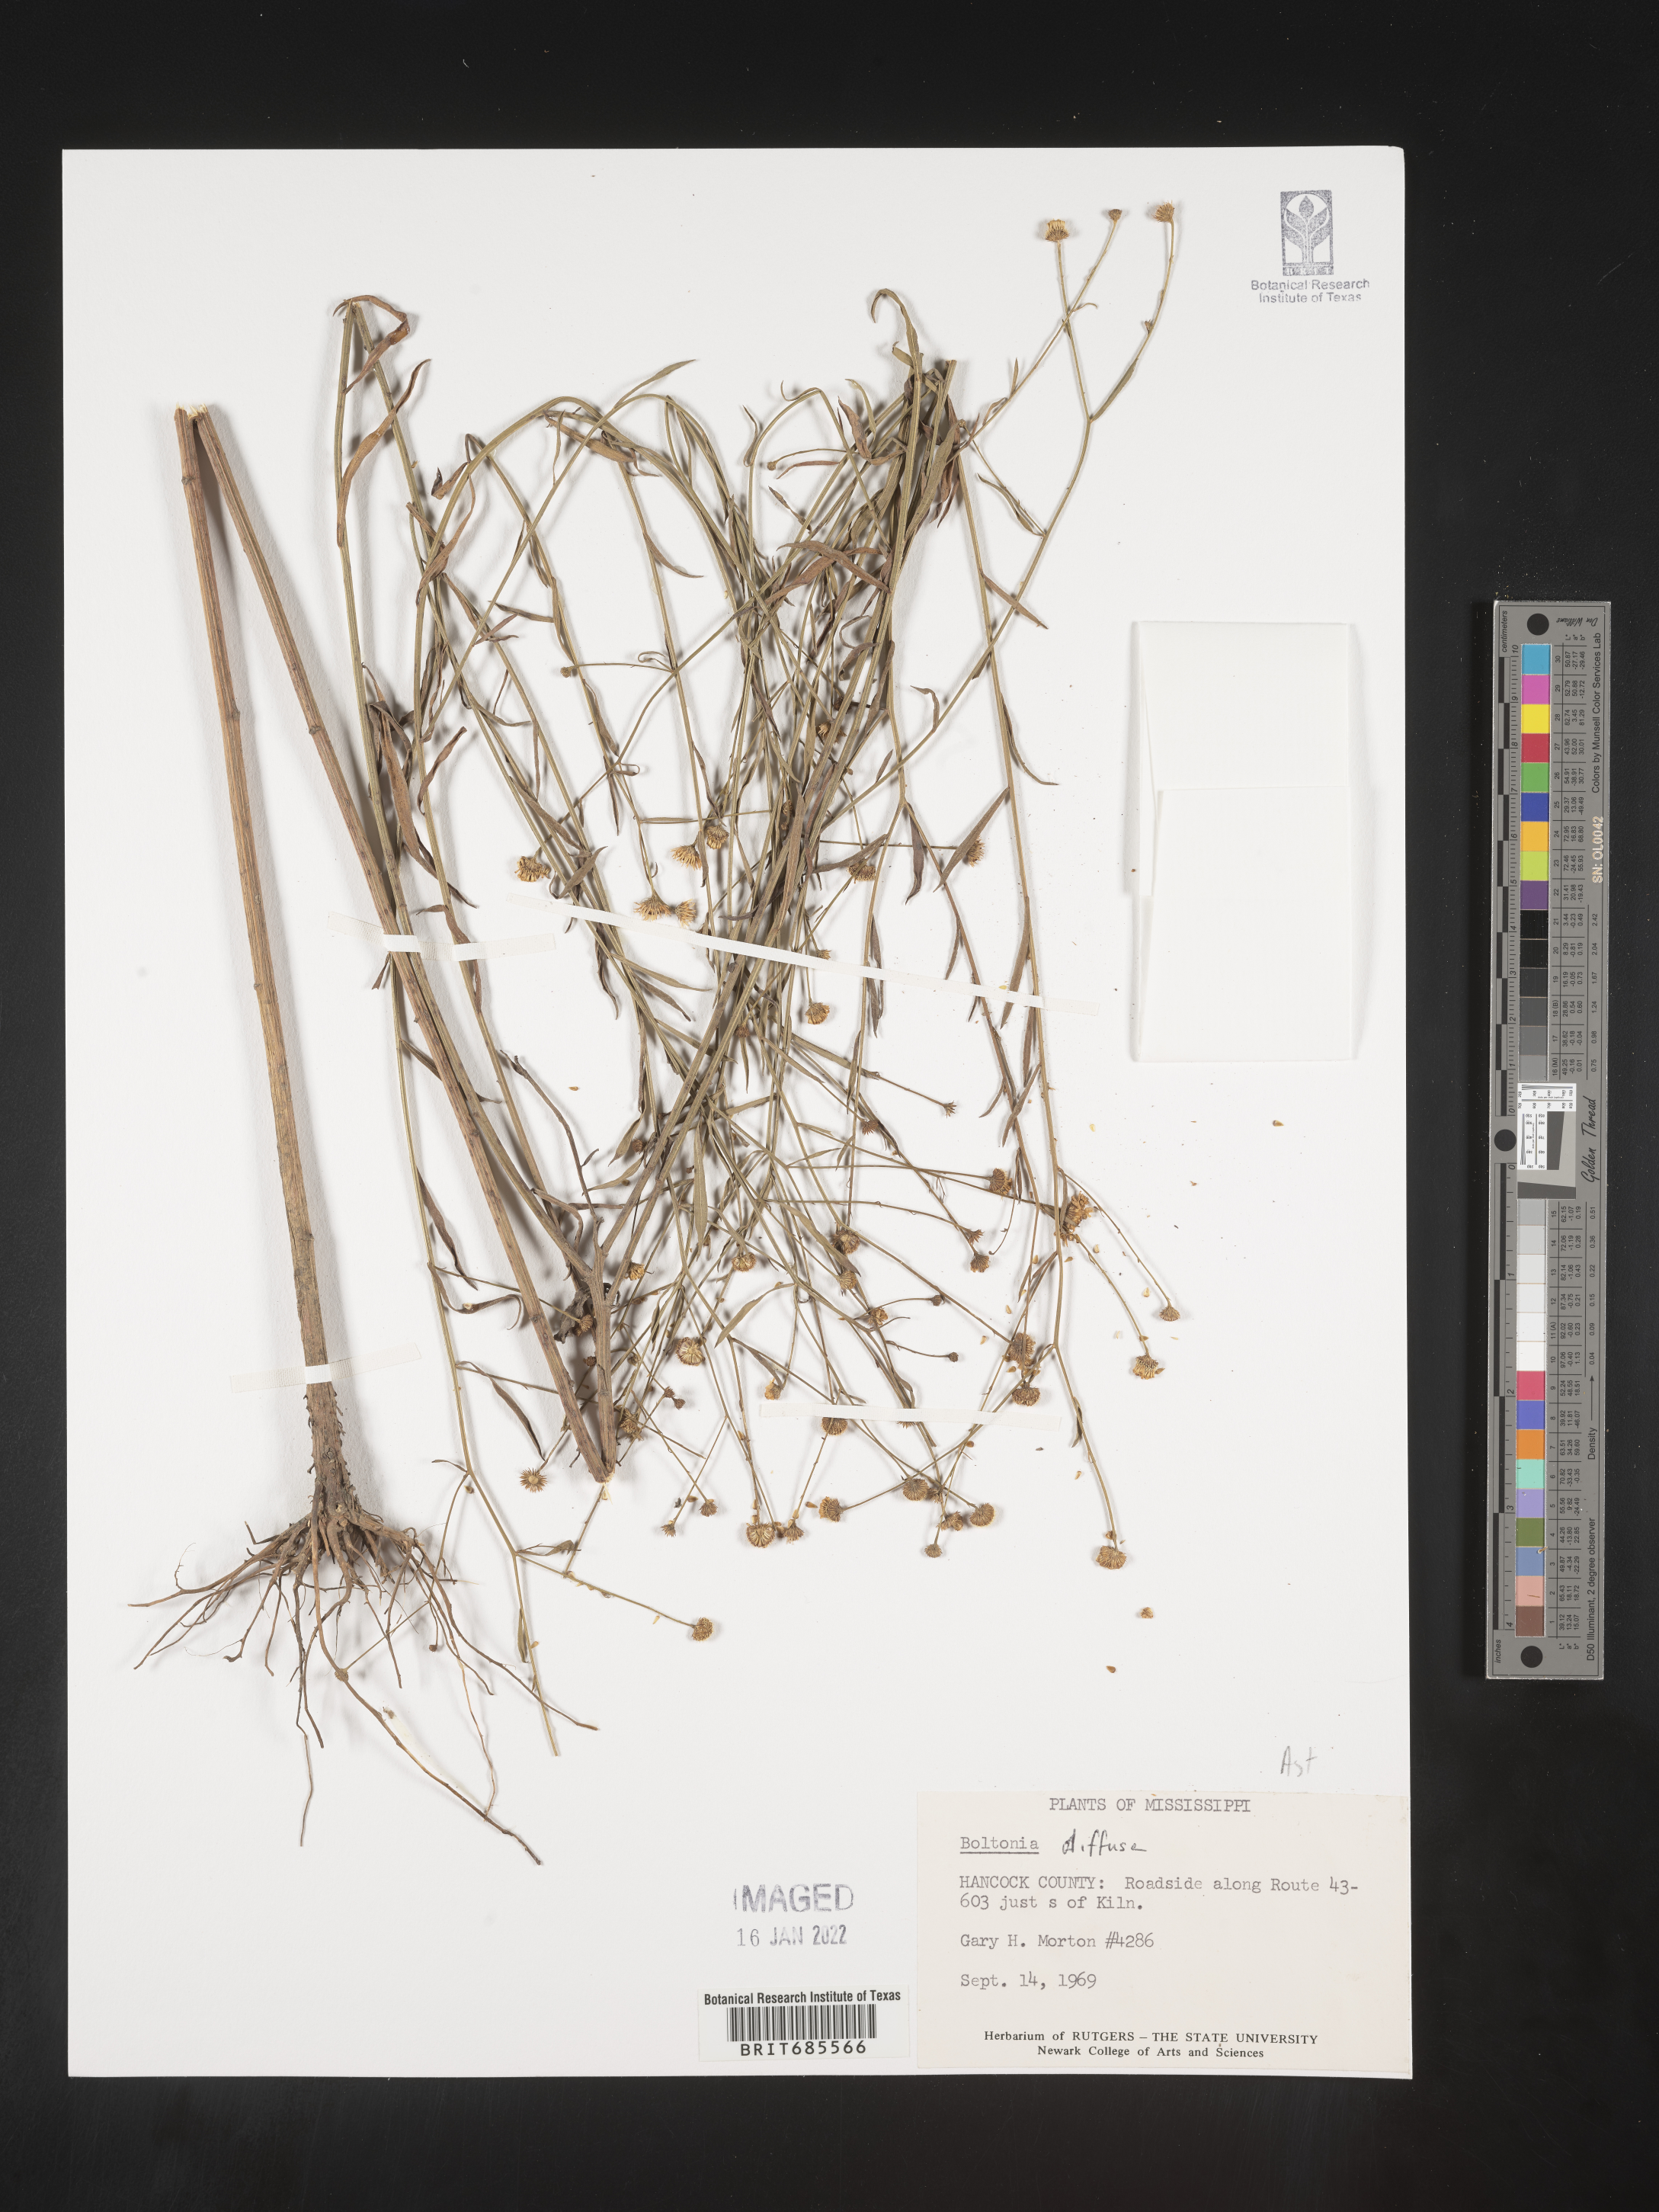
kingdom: Plantae
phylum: Tracheophyta
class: Magnoliopsida
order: Asterales
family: Asteraceae
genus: Boltonia
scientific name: Boltonia diffusa
